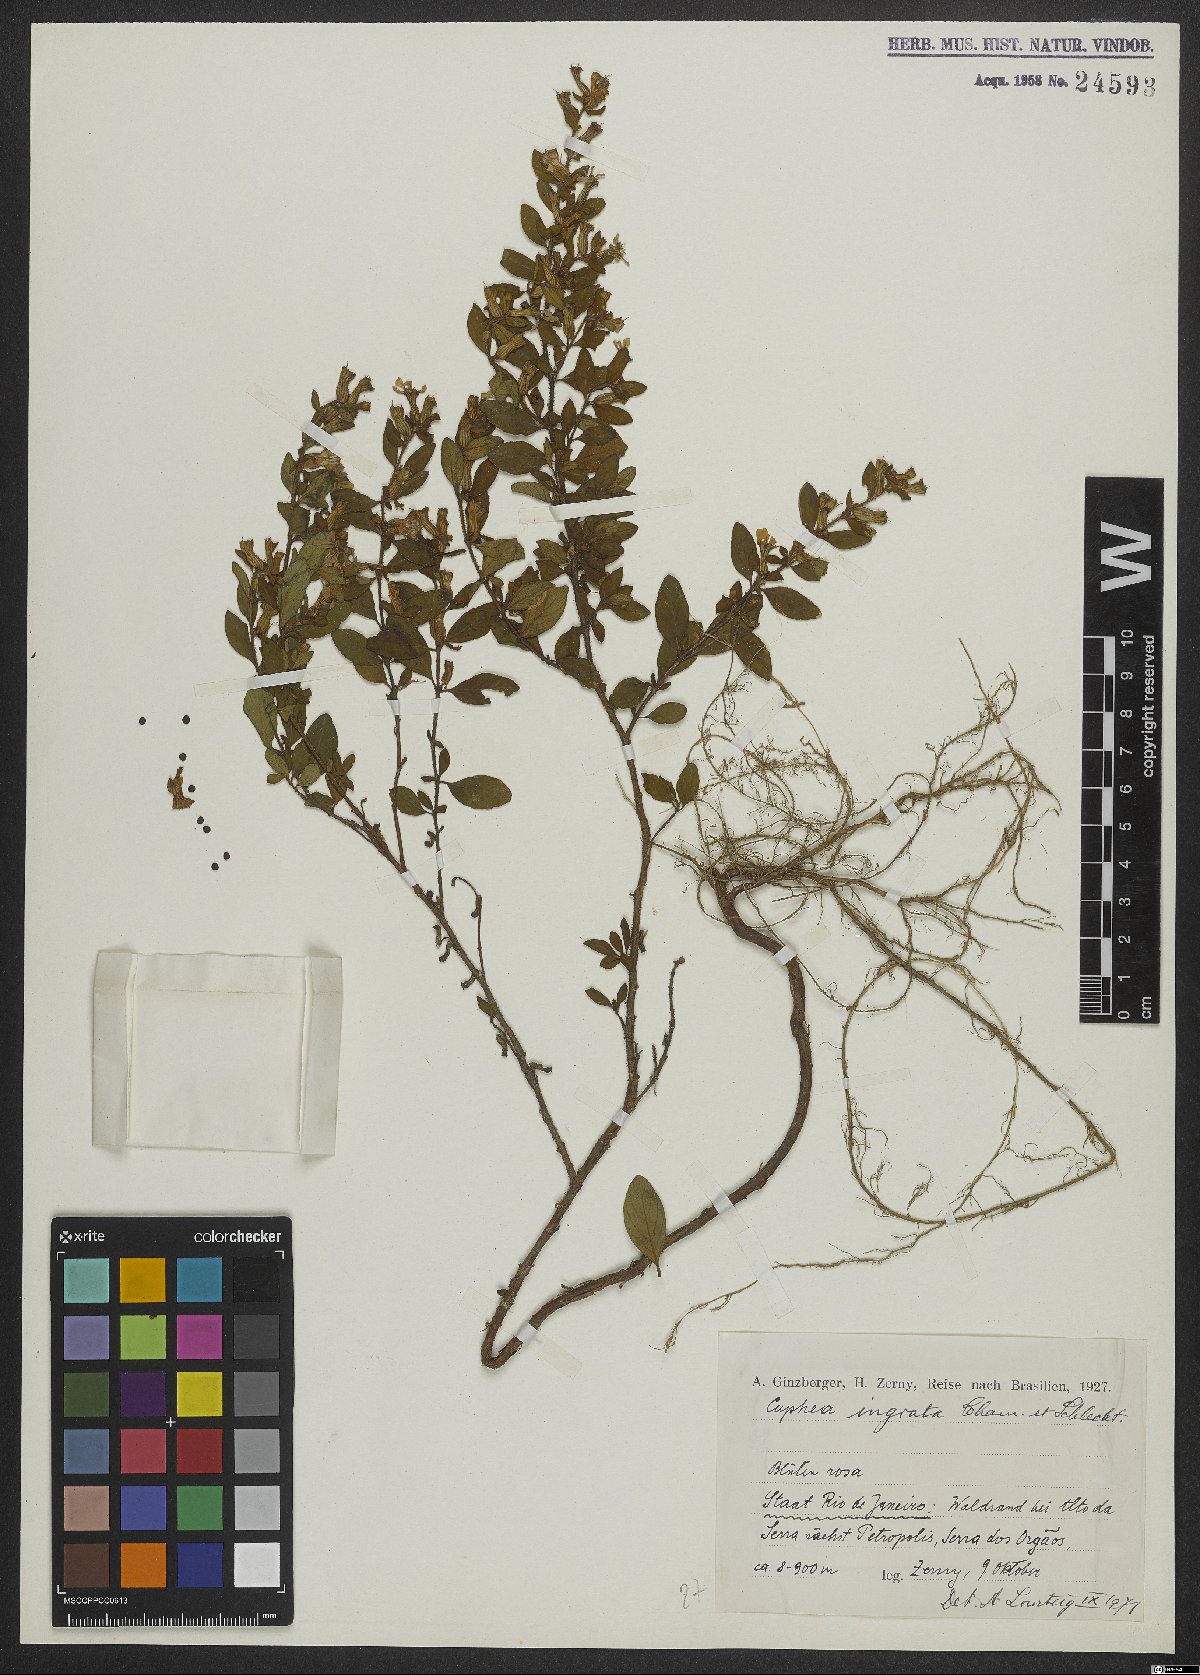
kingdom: Plantae
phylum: Tracheophyta
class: Magnoliopsida
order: Myrtales
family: Lythraceae
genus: Cuphea
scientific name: Cuphea ingrata
